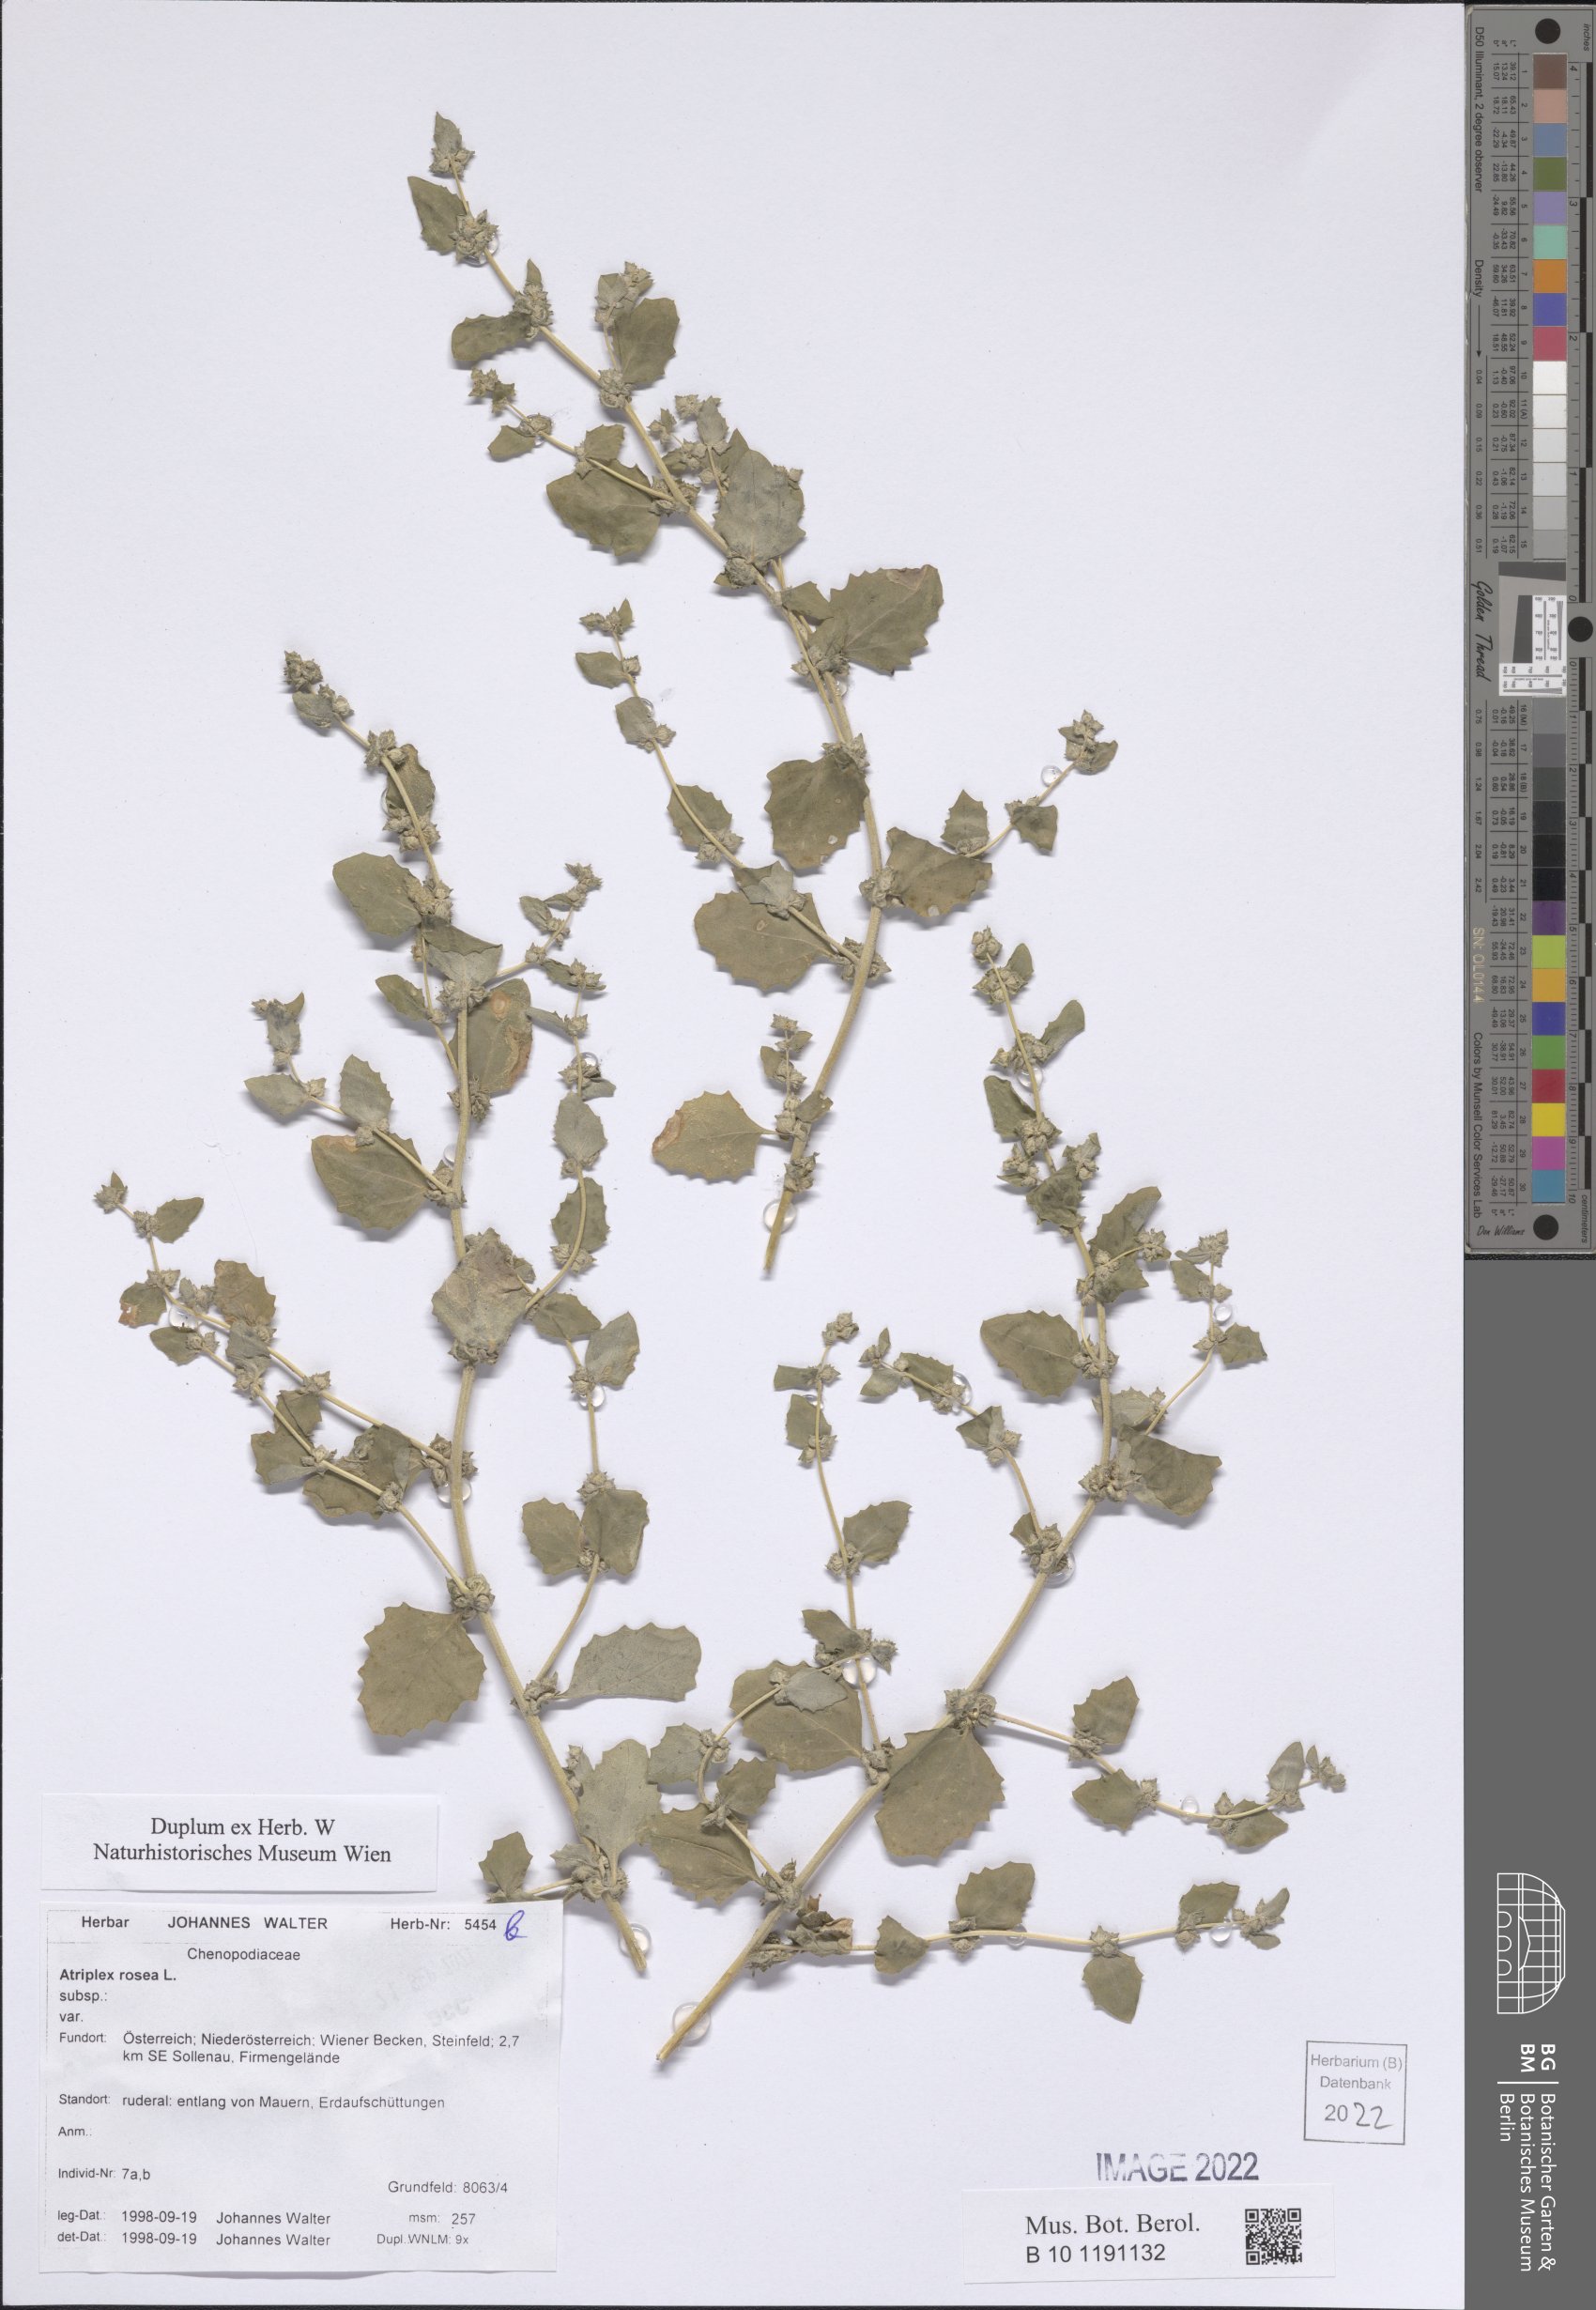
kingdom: Plantae
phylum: Tracheophyta
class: Magnoliopsida
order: Caryophyllales
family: Amaranthaceae
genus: Atriplex
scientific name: Atriplex rosea
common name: Tumbling saltweed
